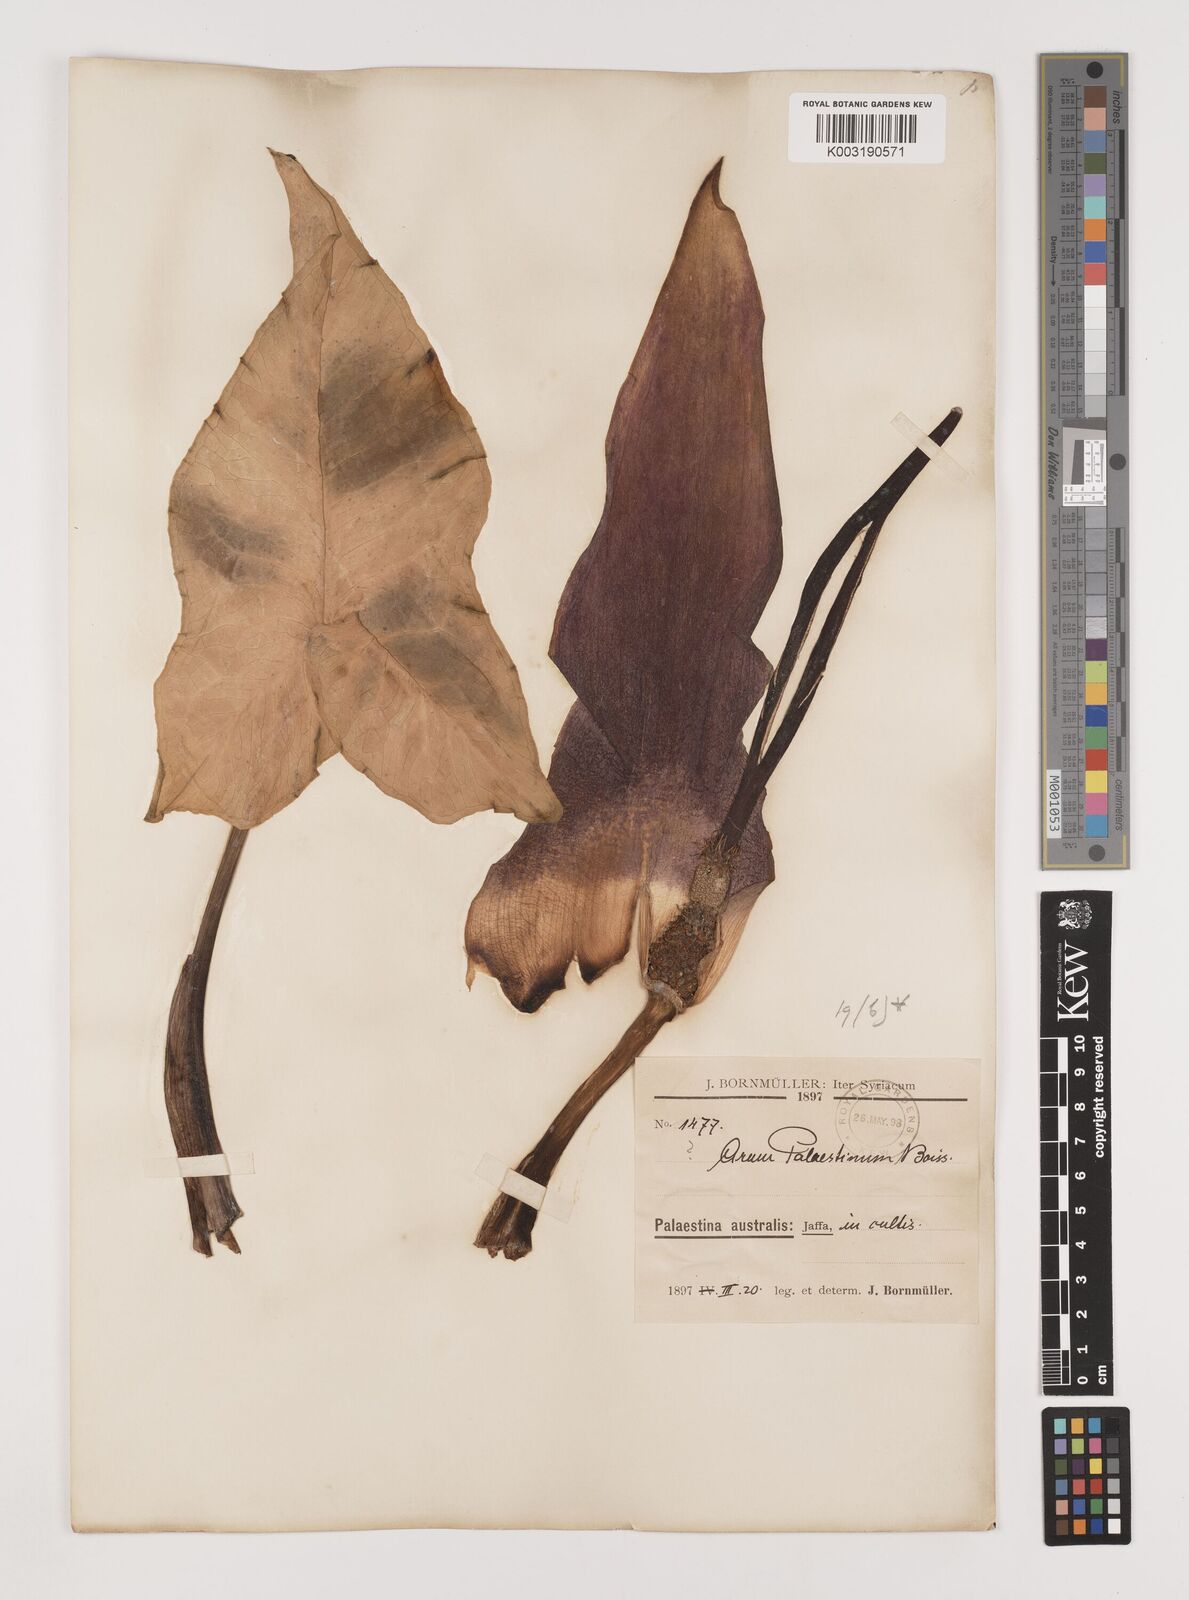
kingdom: Plantae
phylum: Tracheophyta
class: Liliopsida
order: Alismatales
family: Araceae
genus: Arum
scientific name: Arum palaestinum
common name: Solomon's lily
